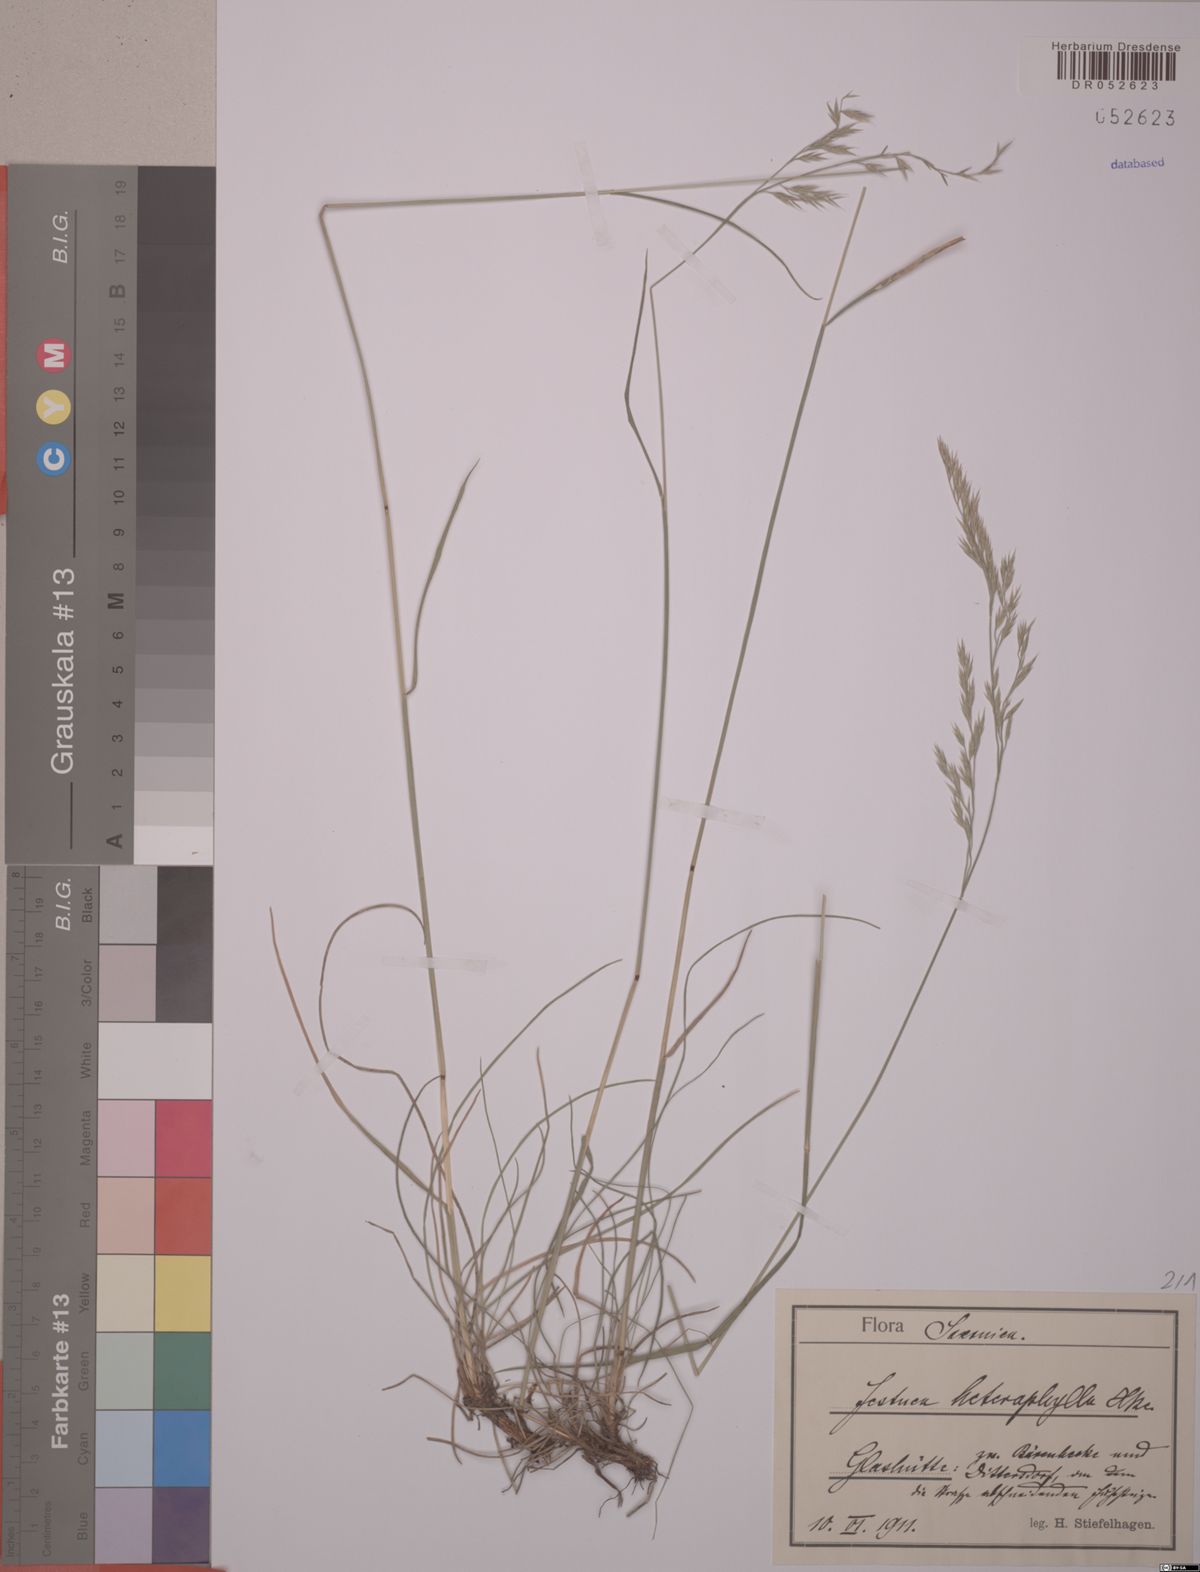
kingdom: Plantae
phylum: Tracheophyta
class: Liliopsida
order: Poales
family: Poaceae
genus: Festuca
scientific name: Festuca heterophylla
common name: Various-leaved fescue
